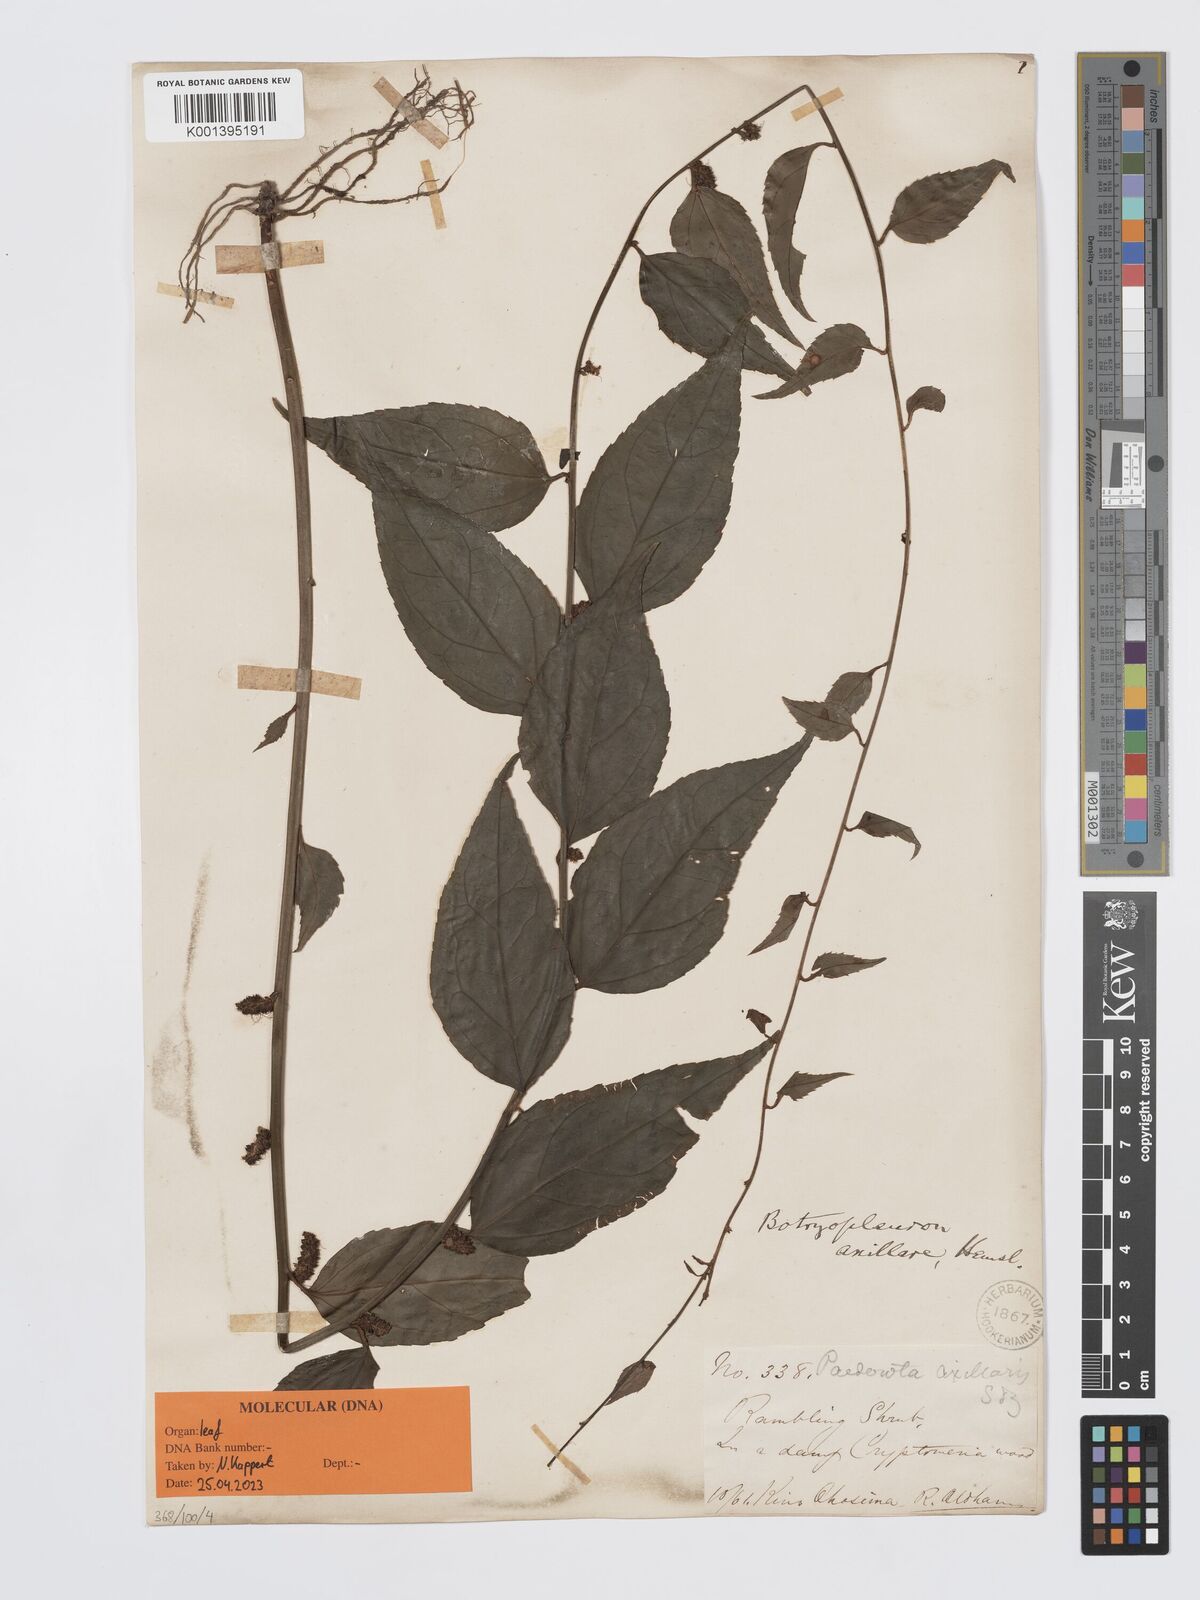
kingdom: Plantae
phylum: Tracheophyta
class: Magnoliopsida
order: Lamiales
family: Plantaginaceae
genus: Veronicastrum
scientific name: Veronicastrum axillare
